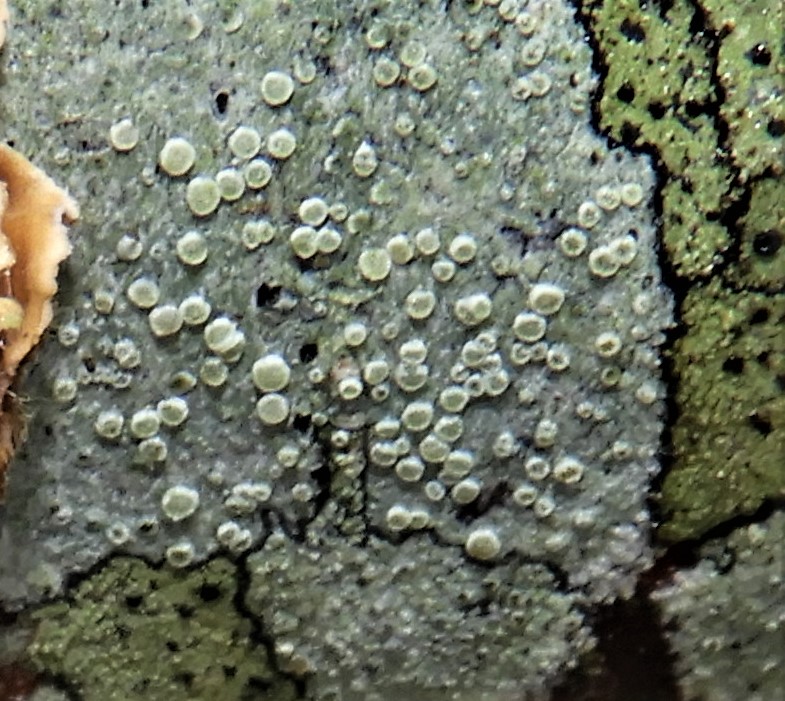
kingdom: Fungi
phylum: Ascomycota
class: Lecanoromycetes
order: Lecanorales
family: Lecanoraceae
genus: Glaucomaria
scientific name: Glaucomaria carpinea
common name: hviddugget kantskivelav
